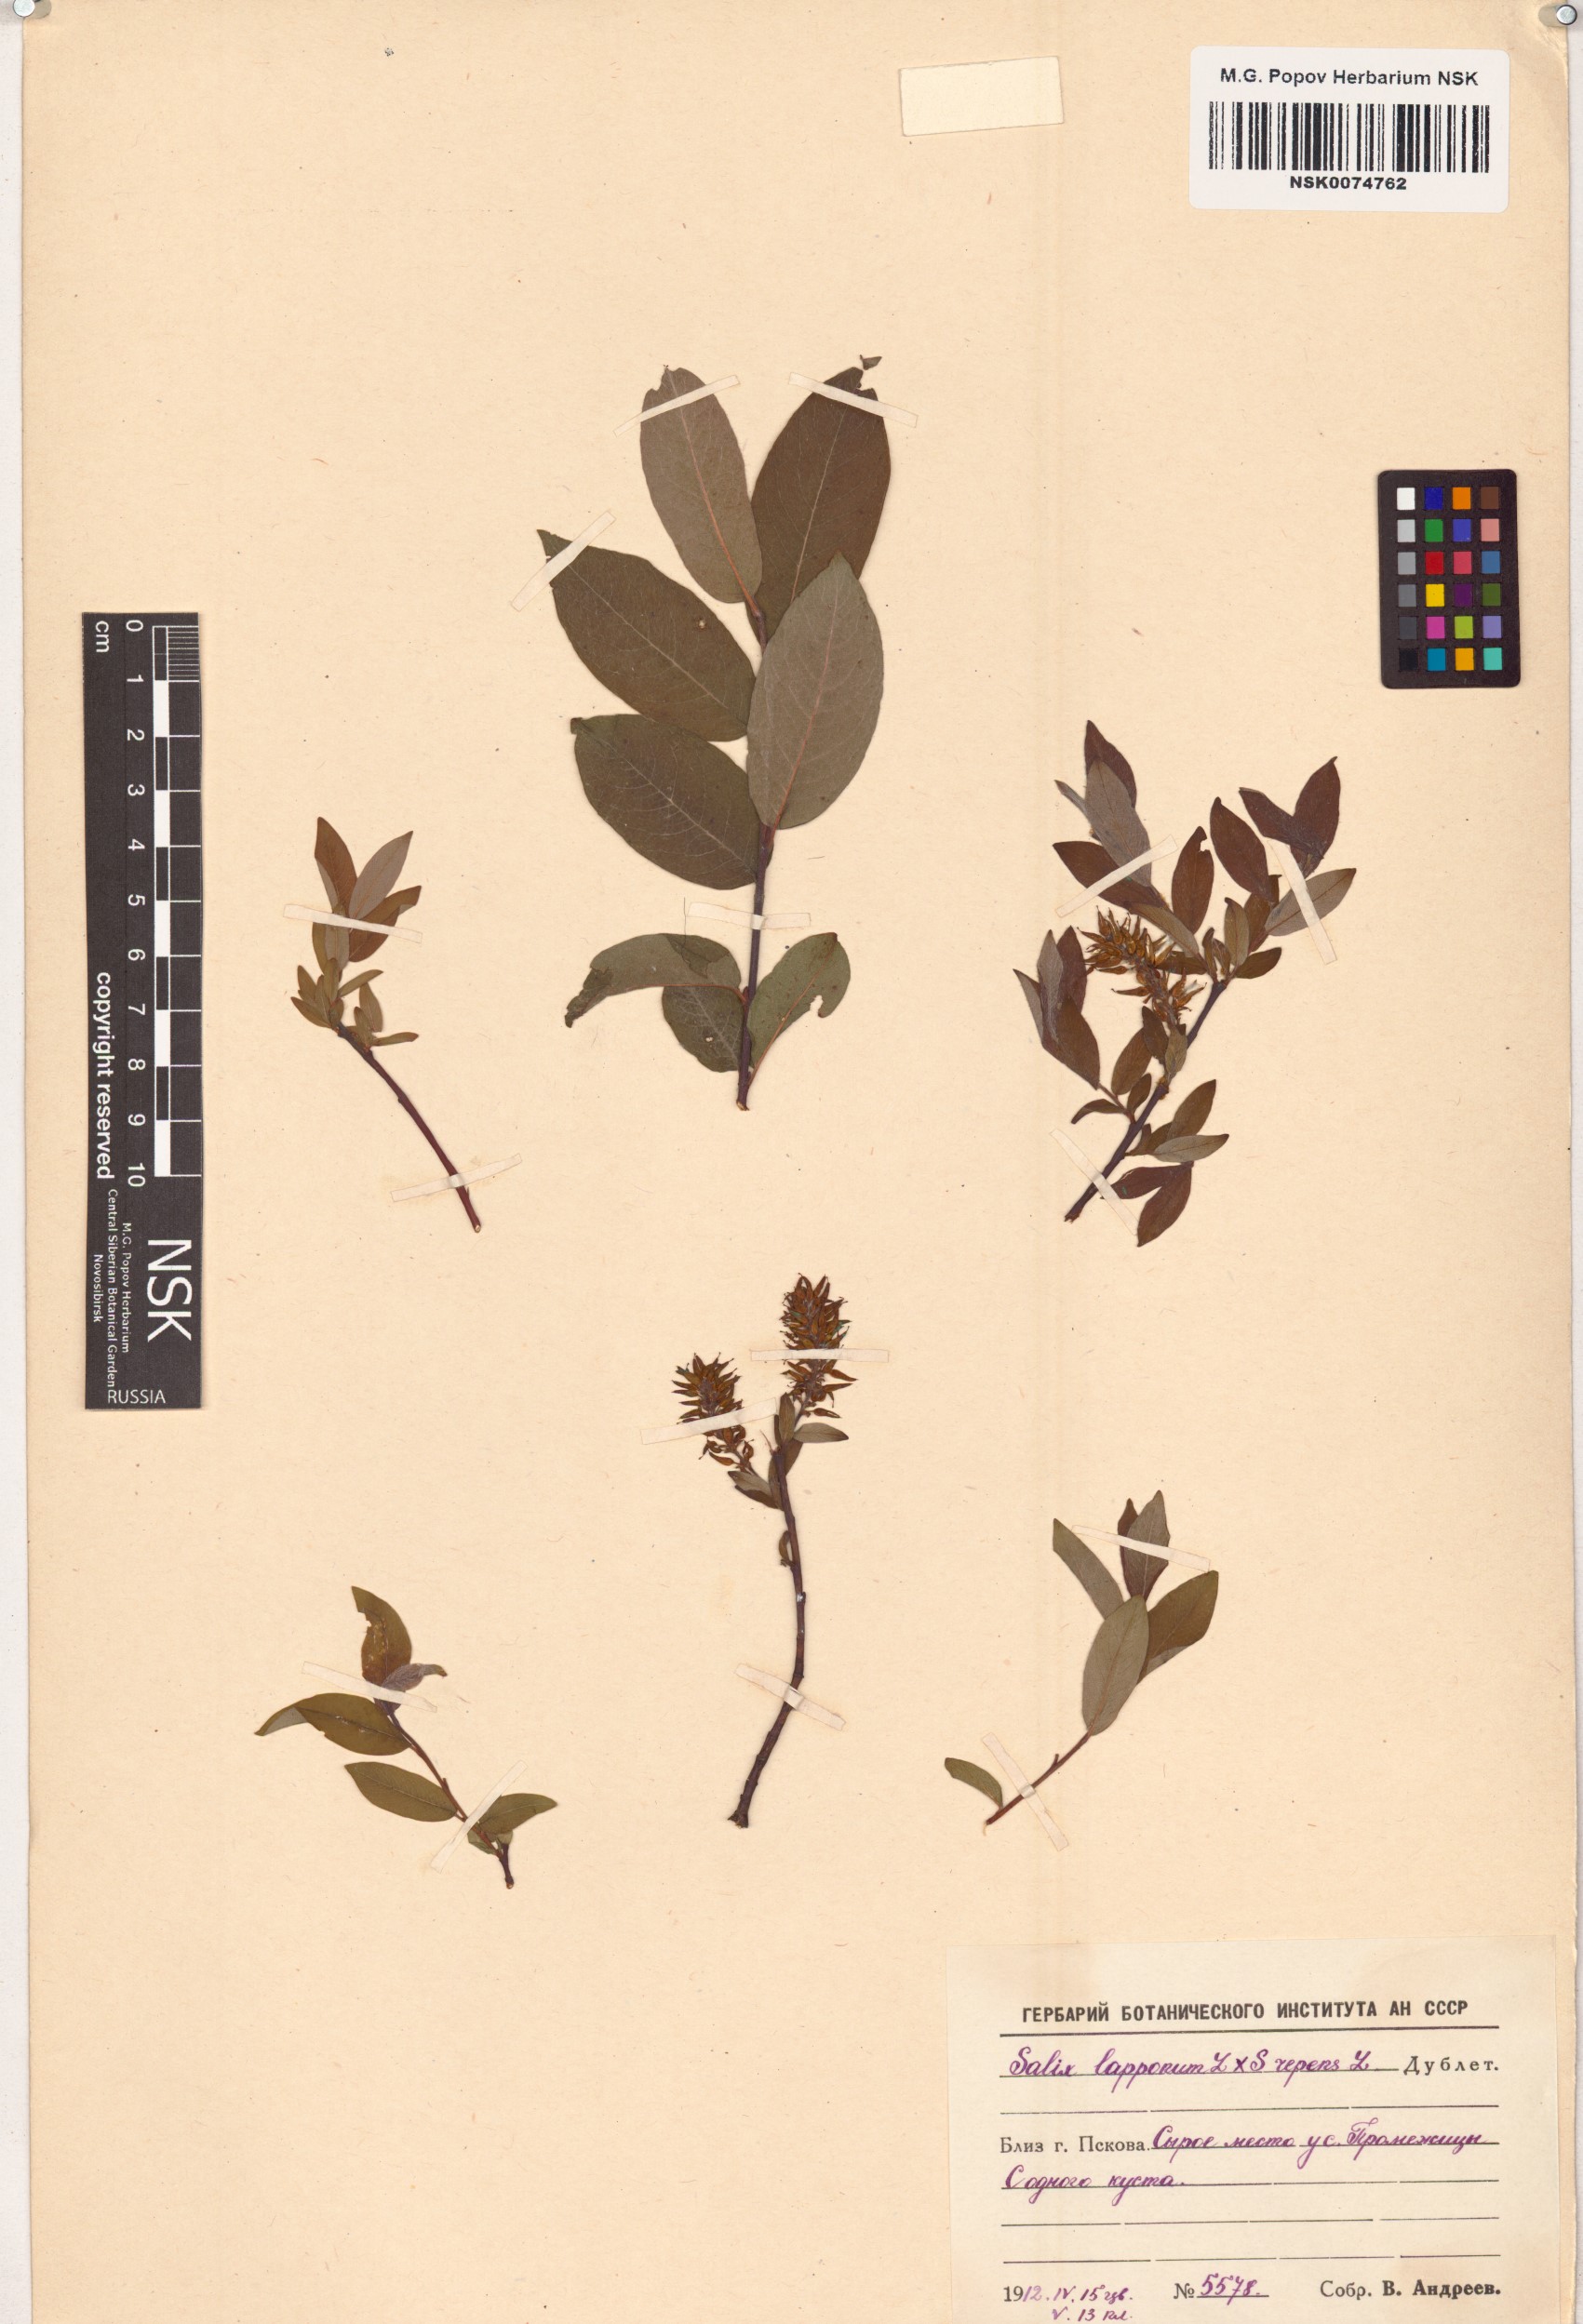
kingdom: Plantae
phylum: Tracheophyta
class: Magnoliopsida
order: Malpighiales
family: Salicaceae
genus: Salix
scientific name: Salix
